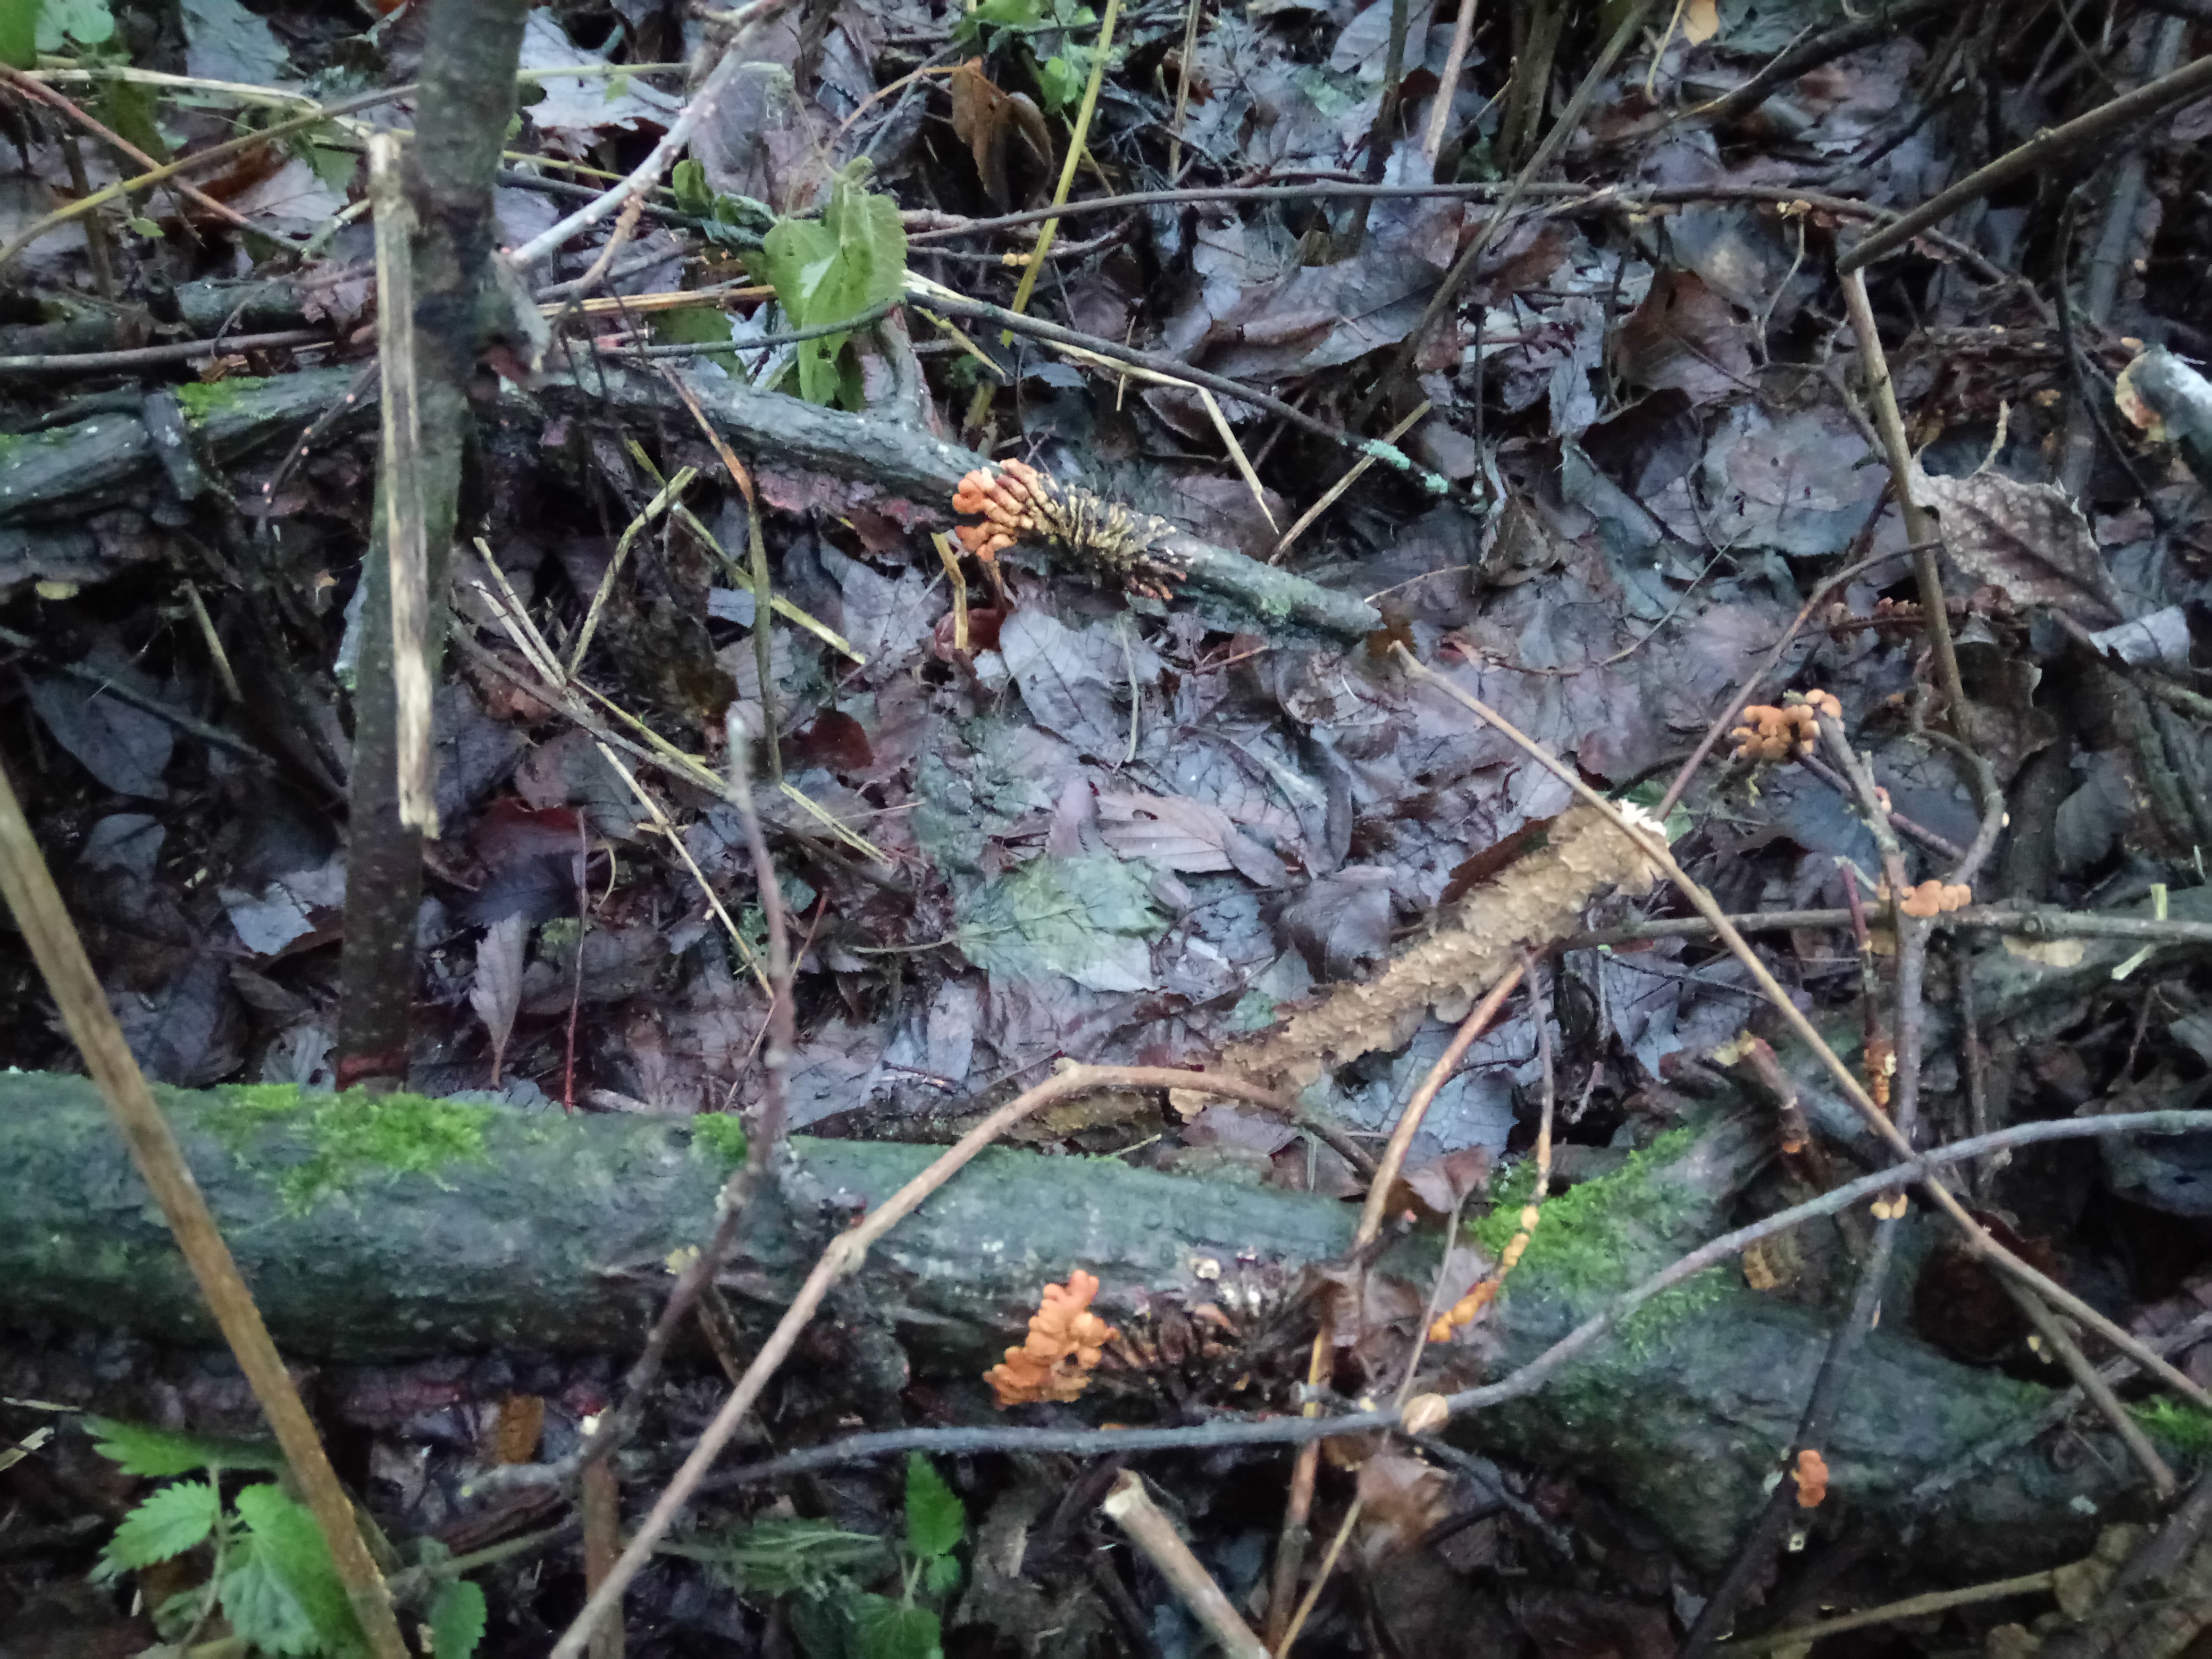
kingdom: Fungi
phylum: Ascomycota
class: Sordariomycetes
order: Hypocreales
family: Hypocreaceae
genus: Hypocreopsis
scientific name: Hypocreopsis lichenoides
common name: Willow gloves
